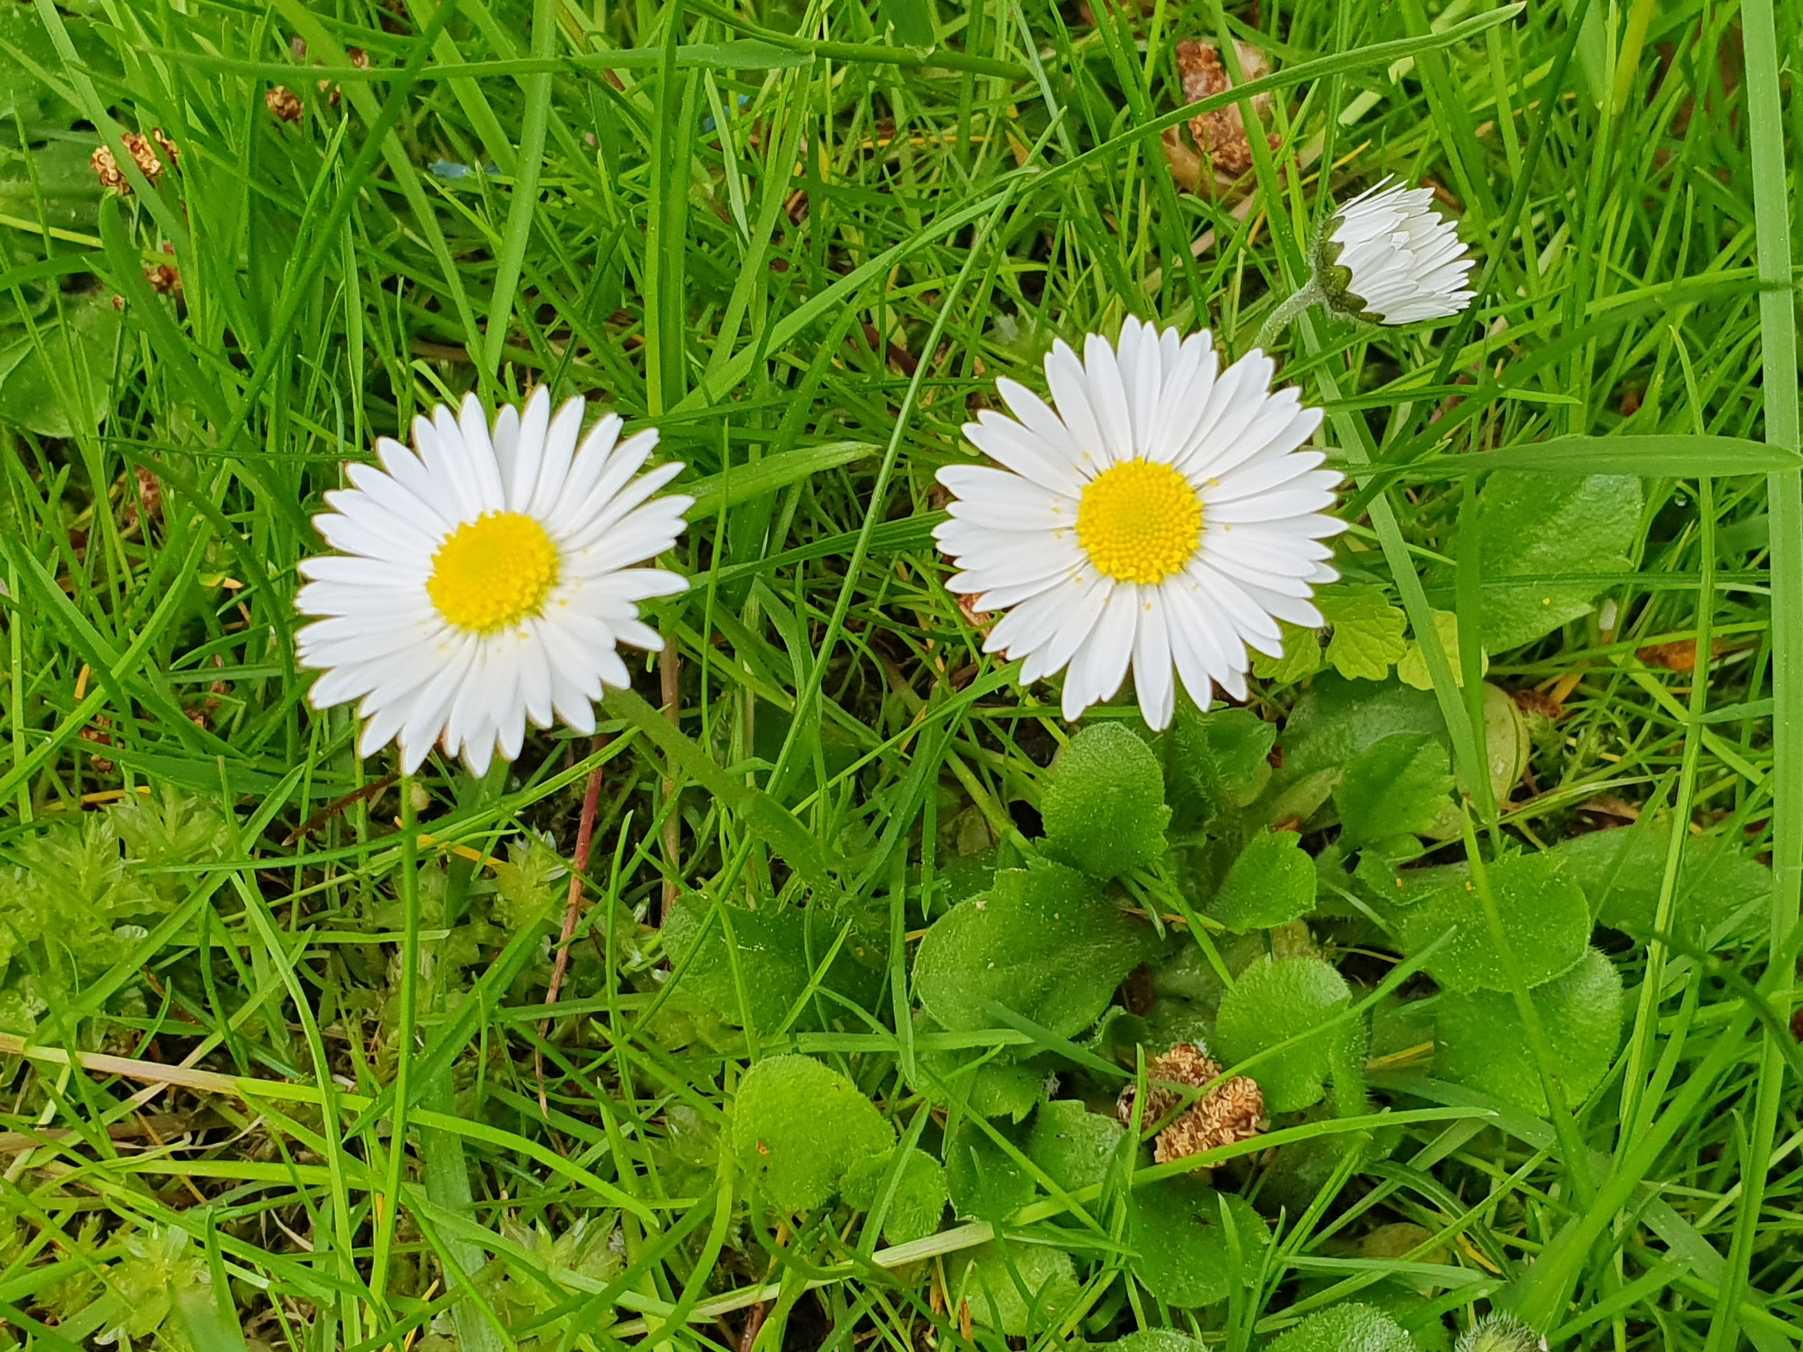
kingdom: Plantae
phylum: Tracheophyta
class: Magnoliopsida
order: Asterales
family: Asteraceae
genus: Bellis
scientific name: Bellis perennis
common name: Tusindfryd
